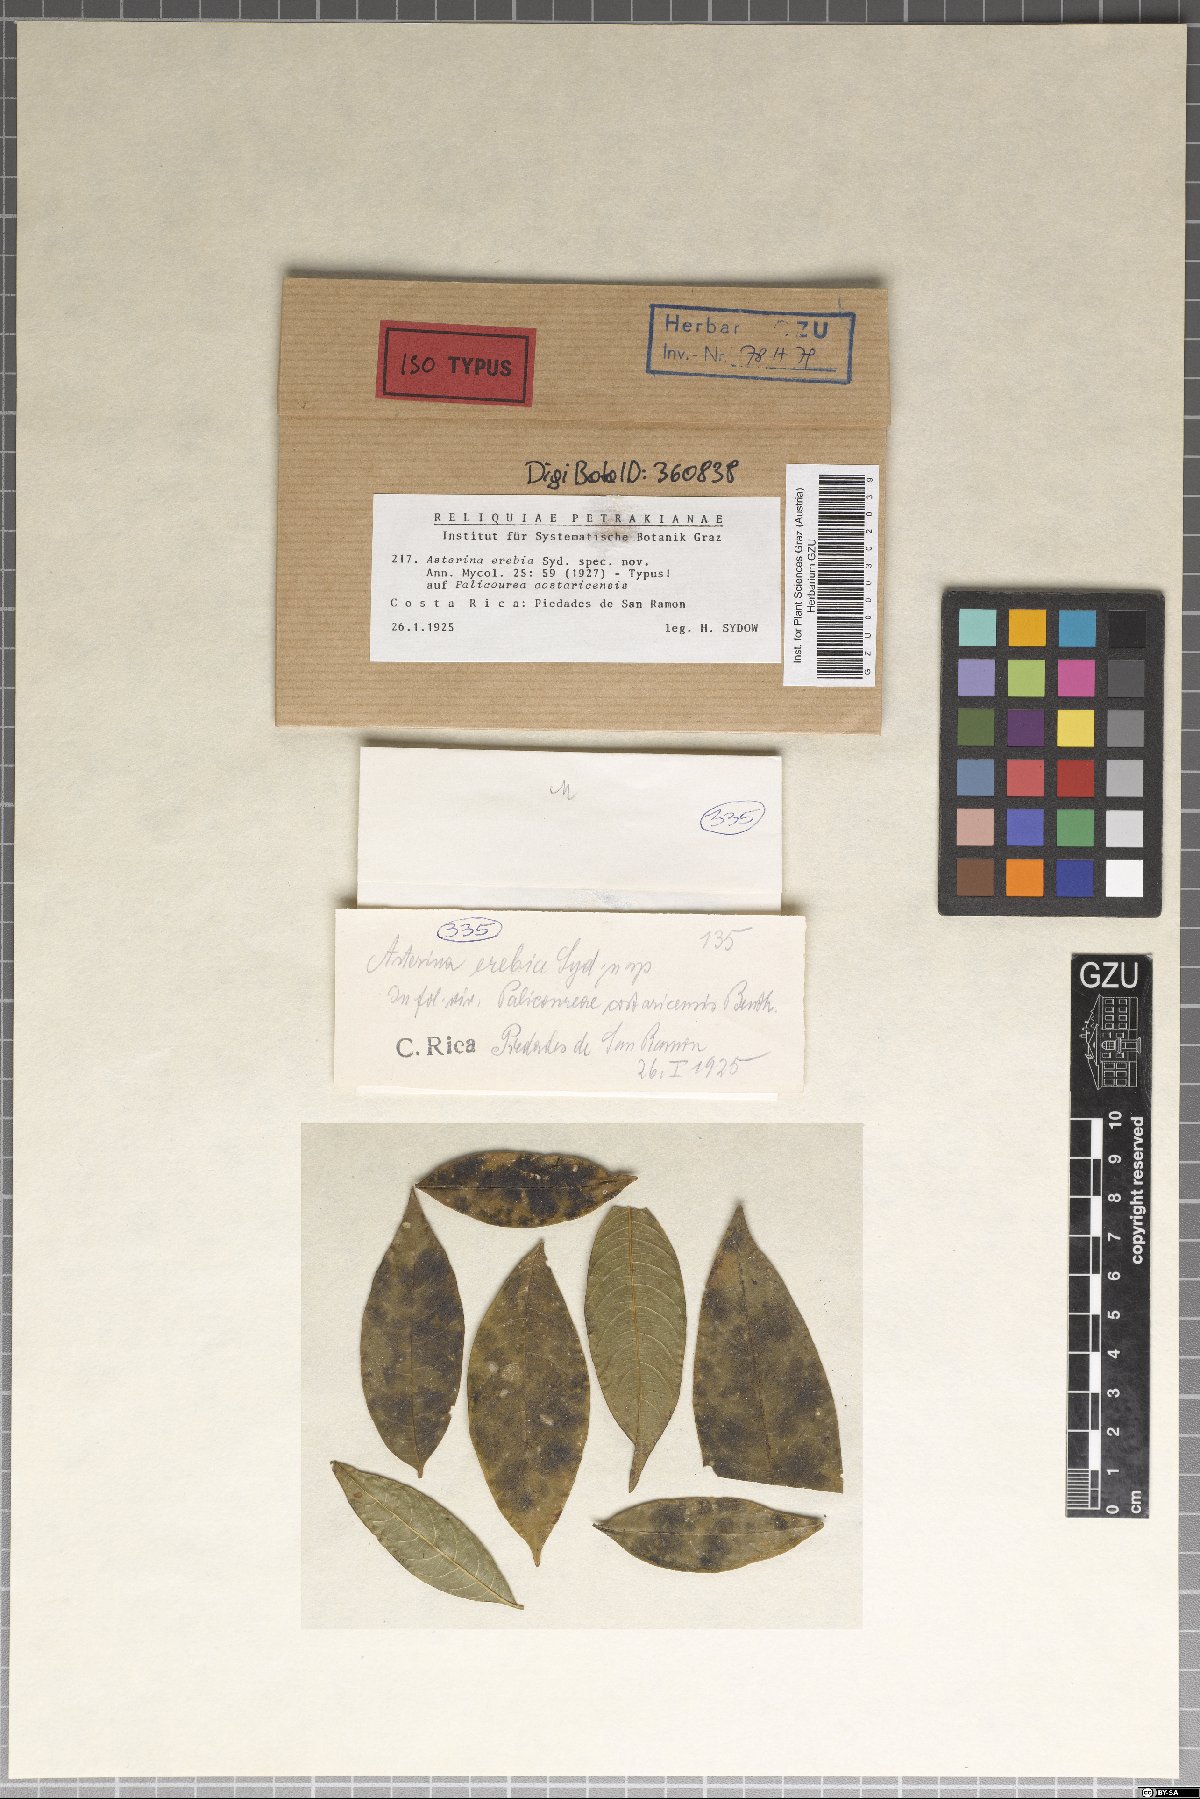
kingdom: Fungi
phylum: Ascomycota
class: Dothideomycetes
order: Asterinales
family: Asterinaceae
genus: Asterina
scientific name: Asterina erebia
